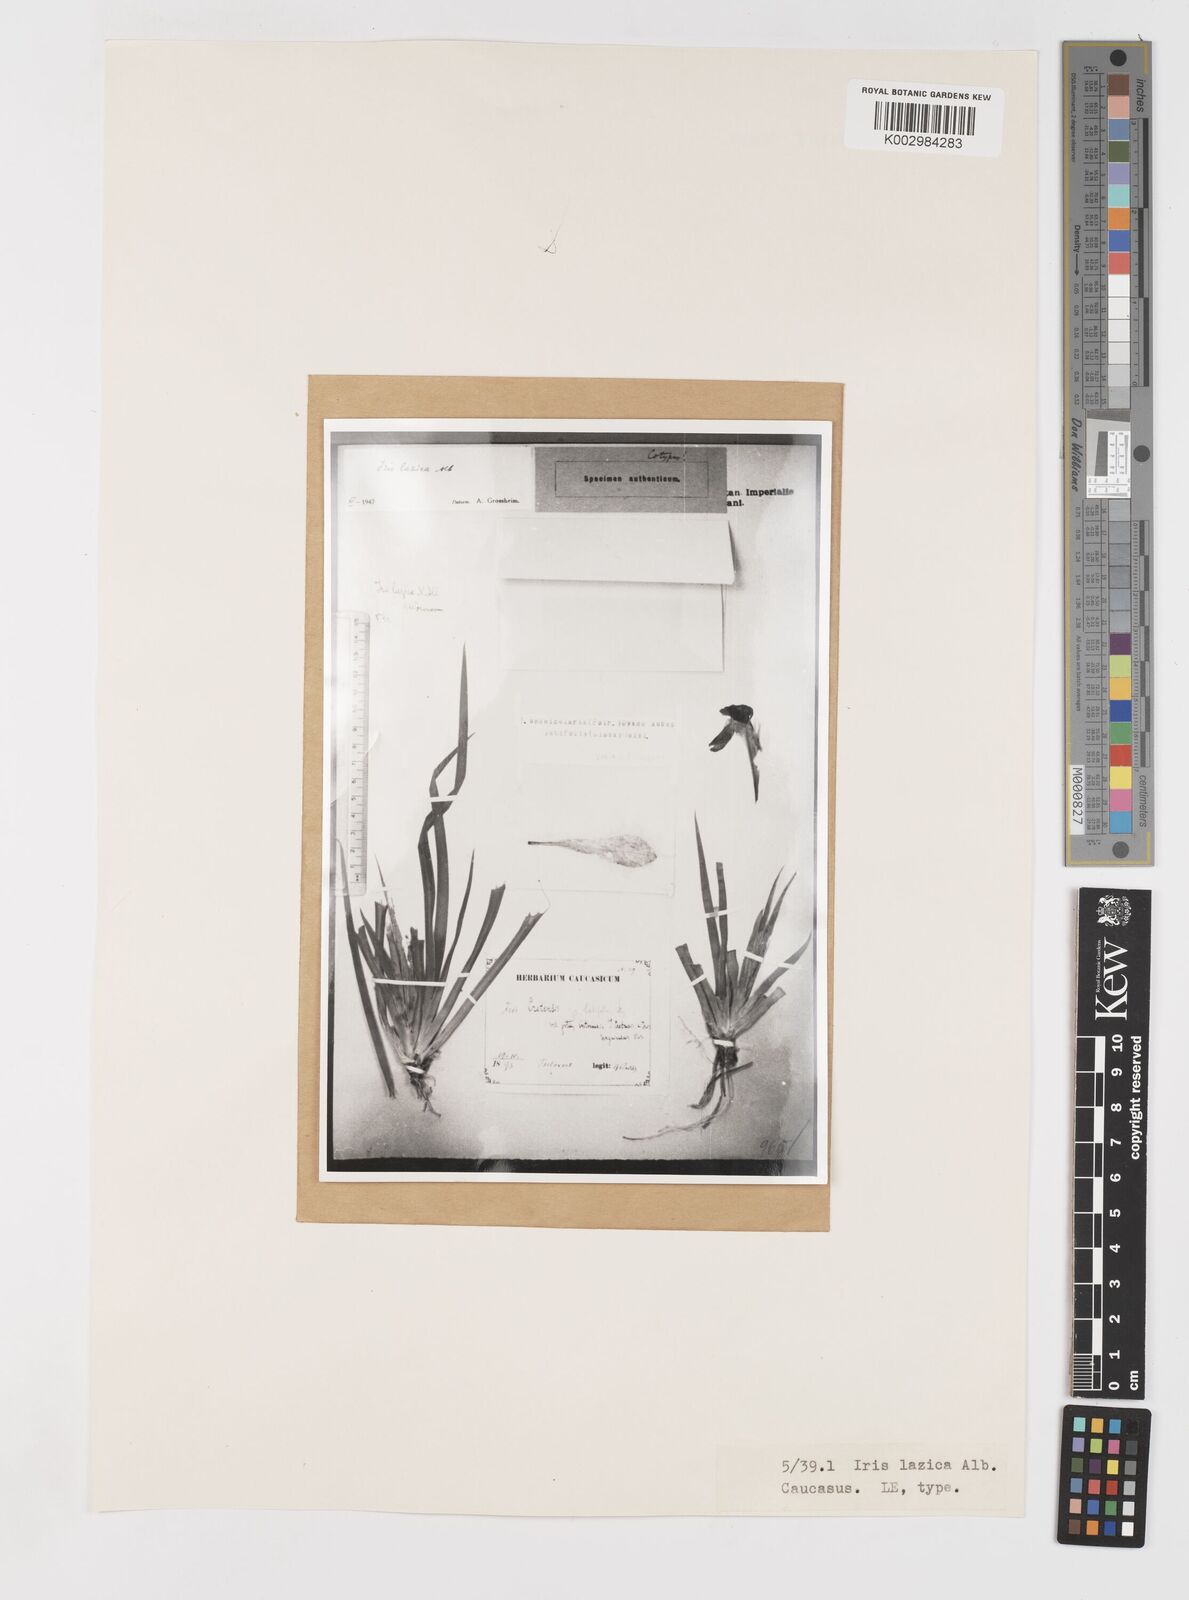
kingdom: Plantae
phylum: Tracheophyta
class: Liliopsida
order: Asparagales
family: Iridaceae
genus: Iris
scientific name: Iris lazica
